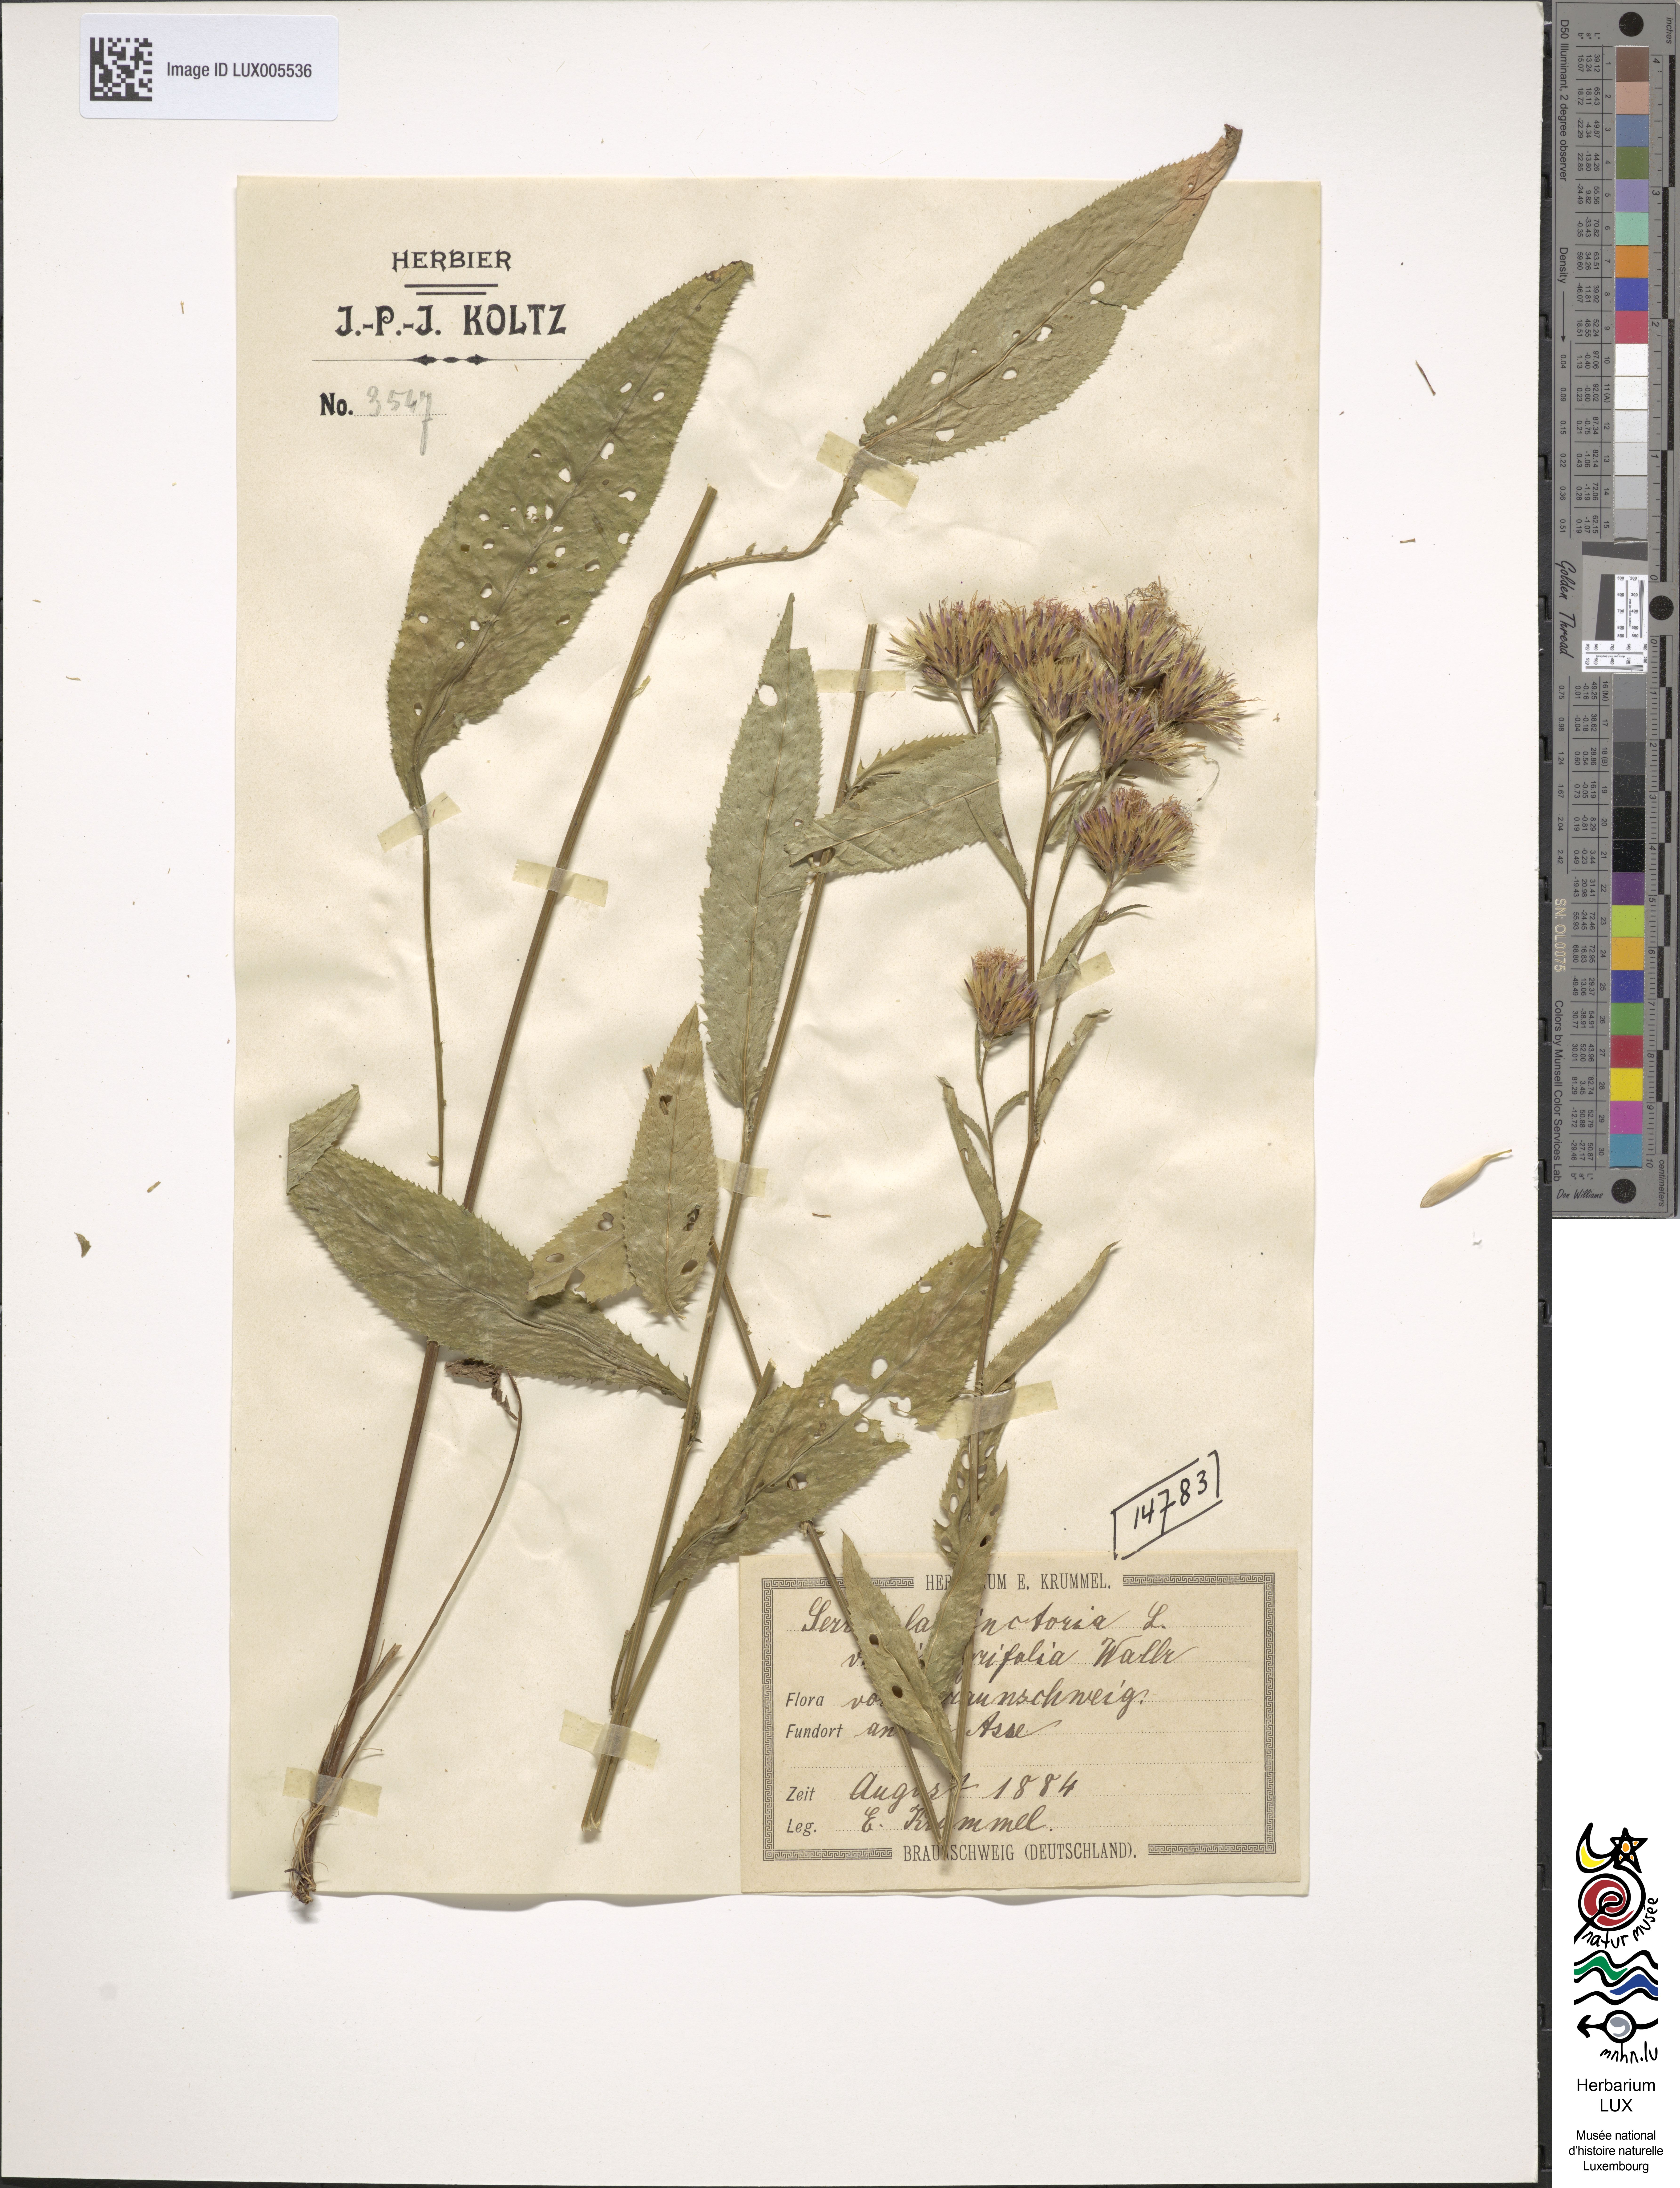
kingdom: Plantae
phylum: Tracheophyta
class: Magnoliopsida
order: Asterales
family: Asteraceae
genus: Serratula
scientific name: Serratula tinctoria
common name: Saw-wort
